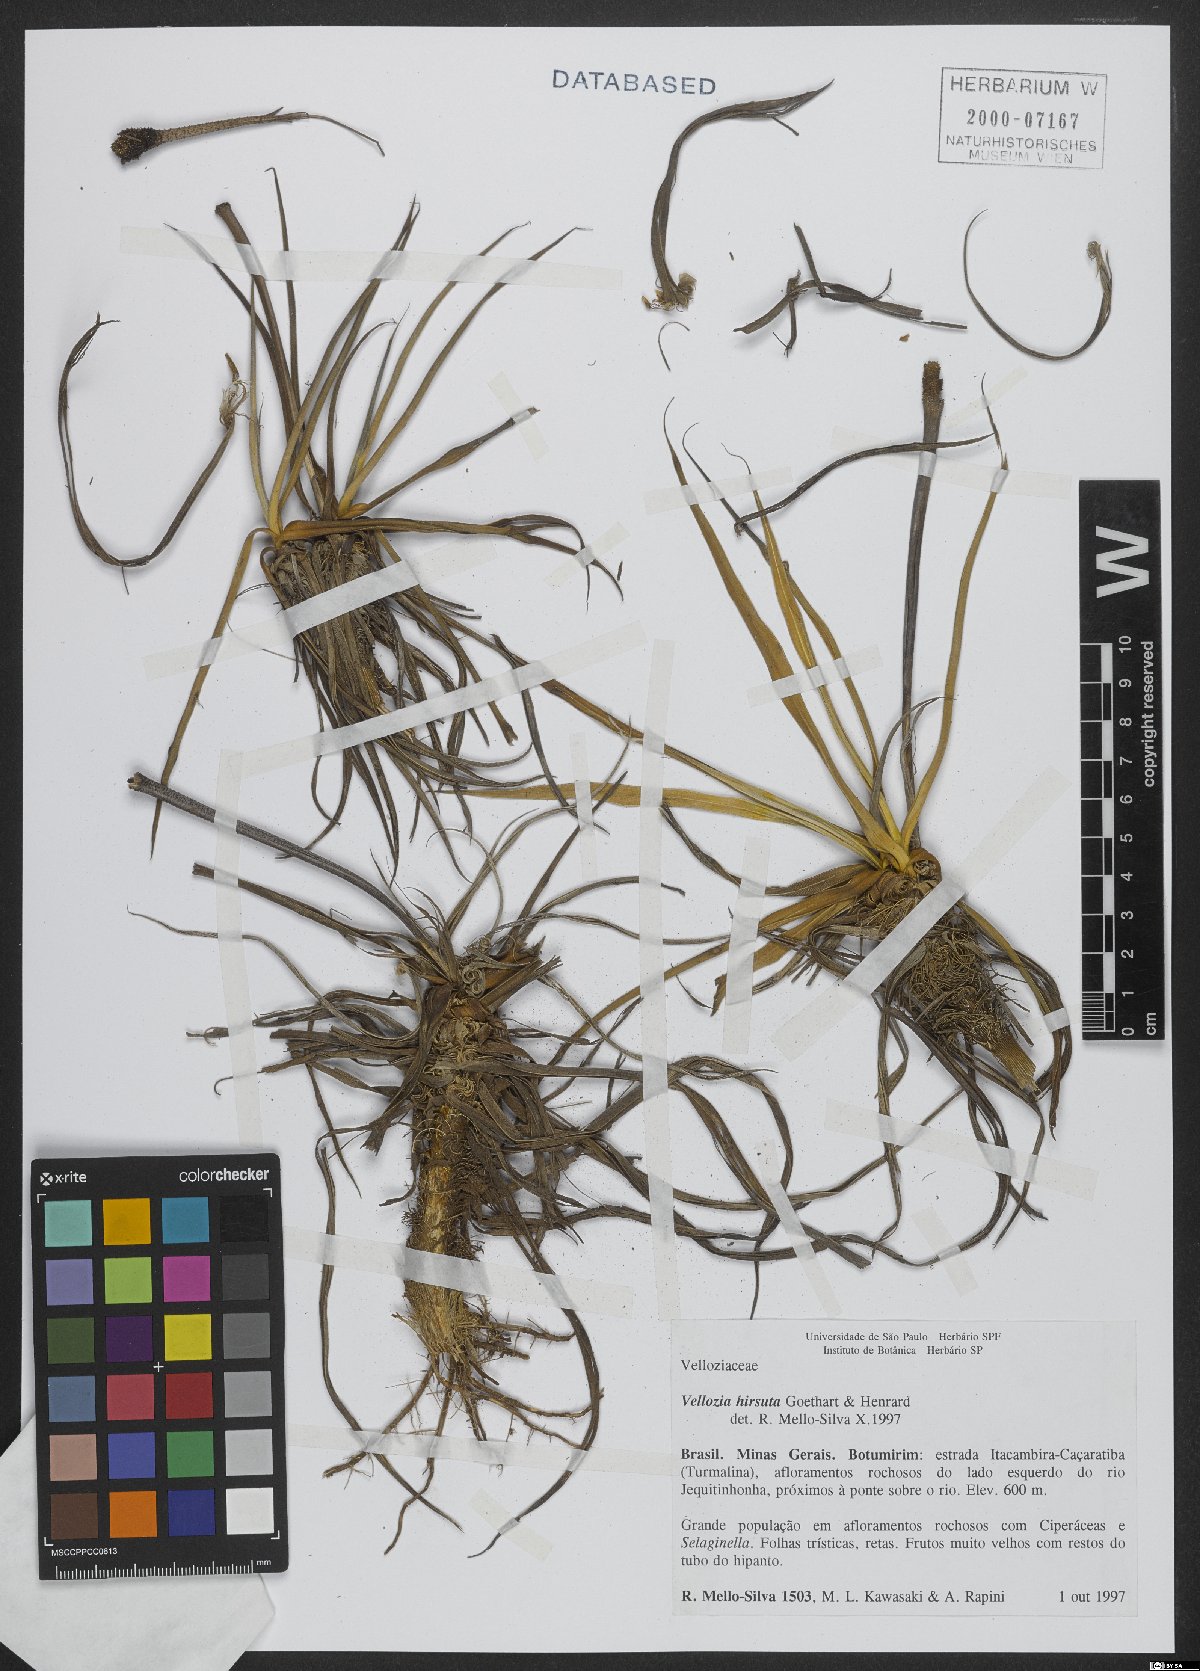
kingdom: Plantae
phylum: Tracheophyta
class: Liliopsida
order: Pandanales
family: Velloziaceae
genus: Vellozia
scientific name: Vellozia hirsuta
